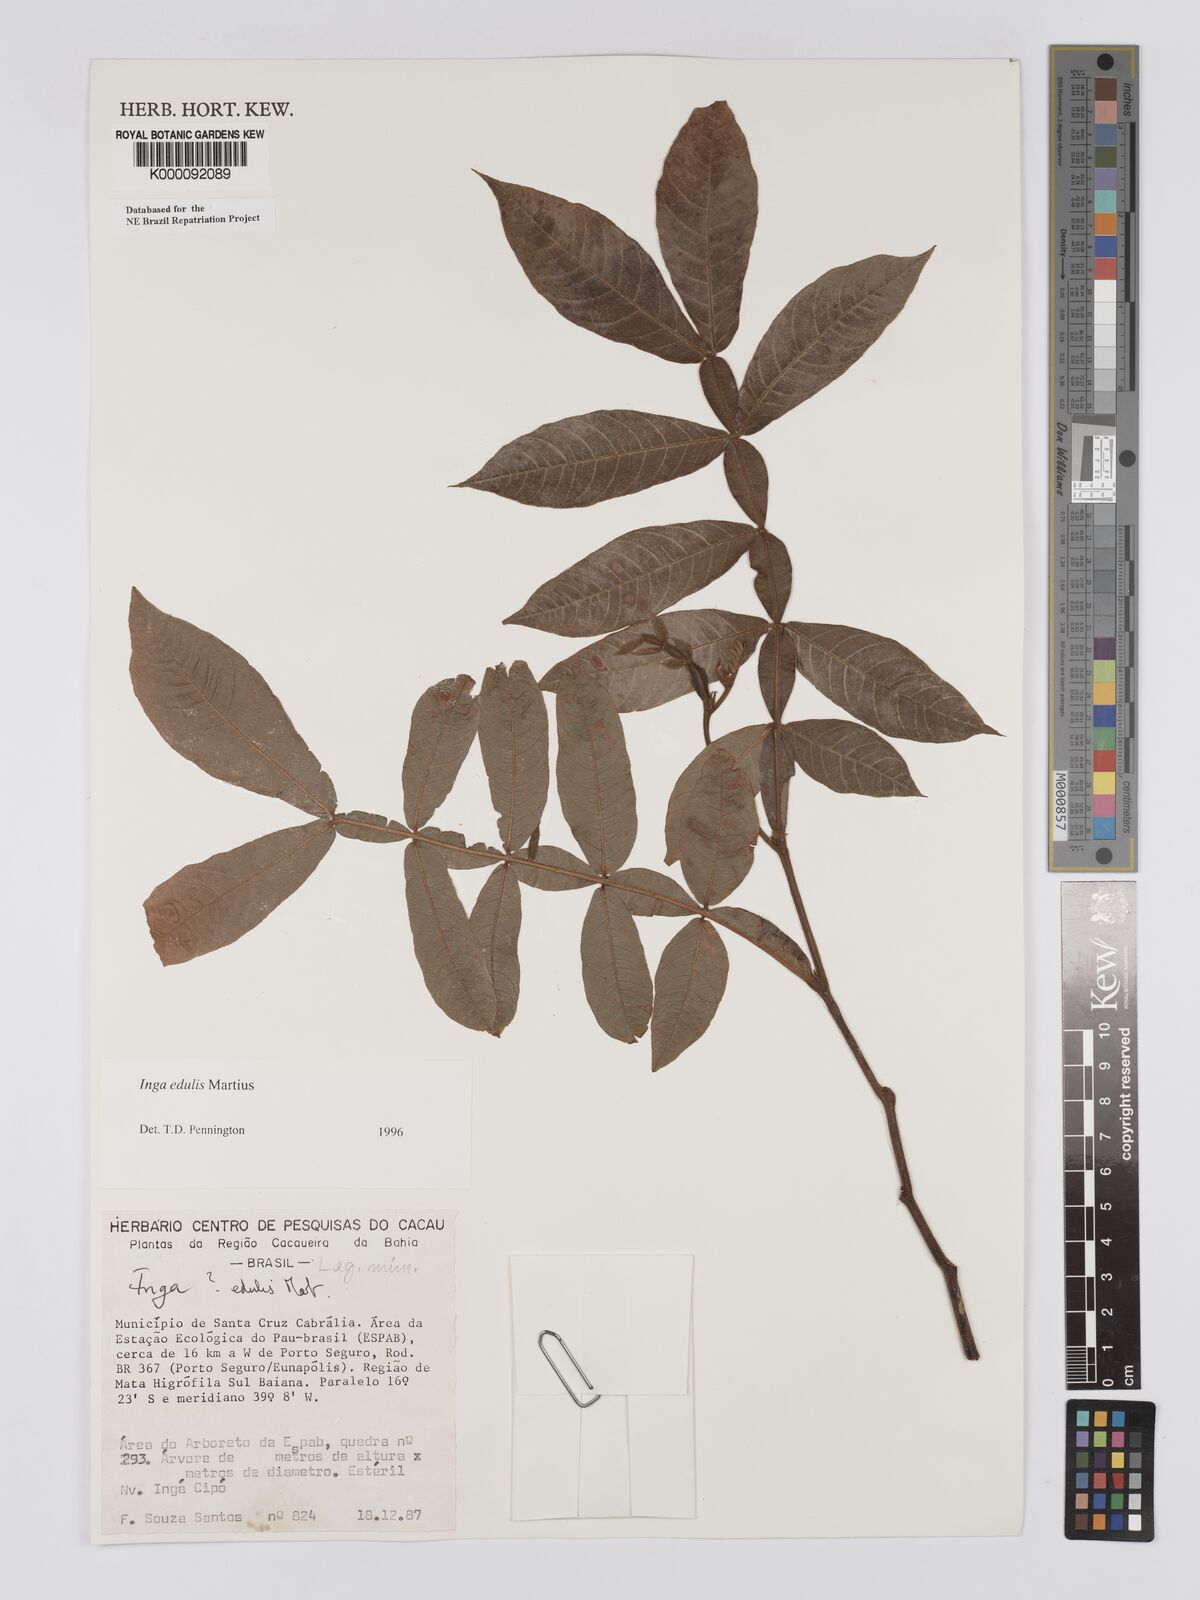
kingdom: Plantae
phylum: Tracheophyta
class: Magnoliopsida
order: Fabales
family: Fabaceae
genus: Inga
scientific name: Inga edulis
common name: Ice cream bean
